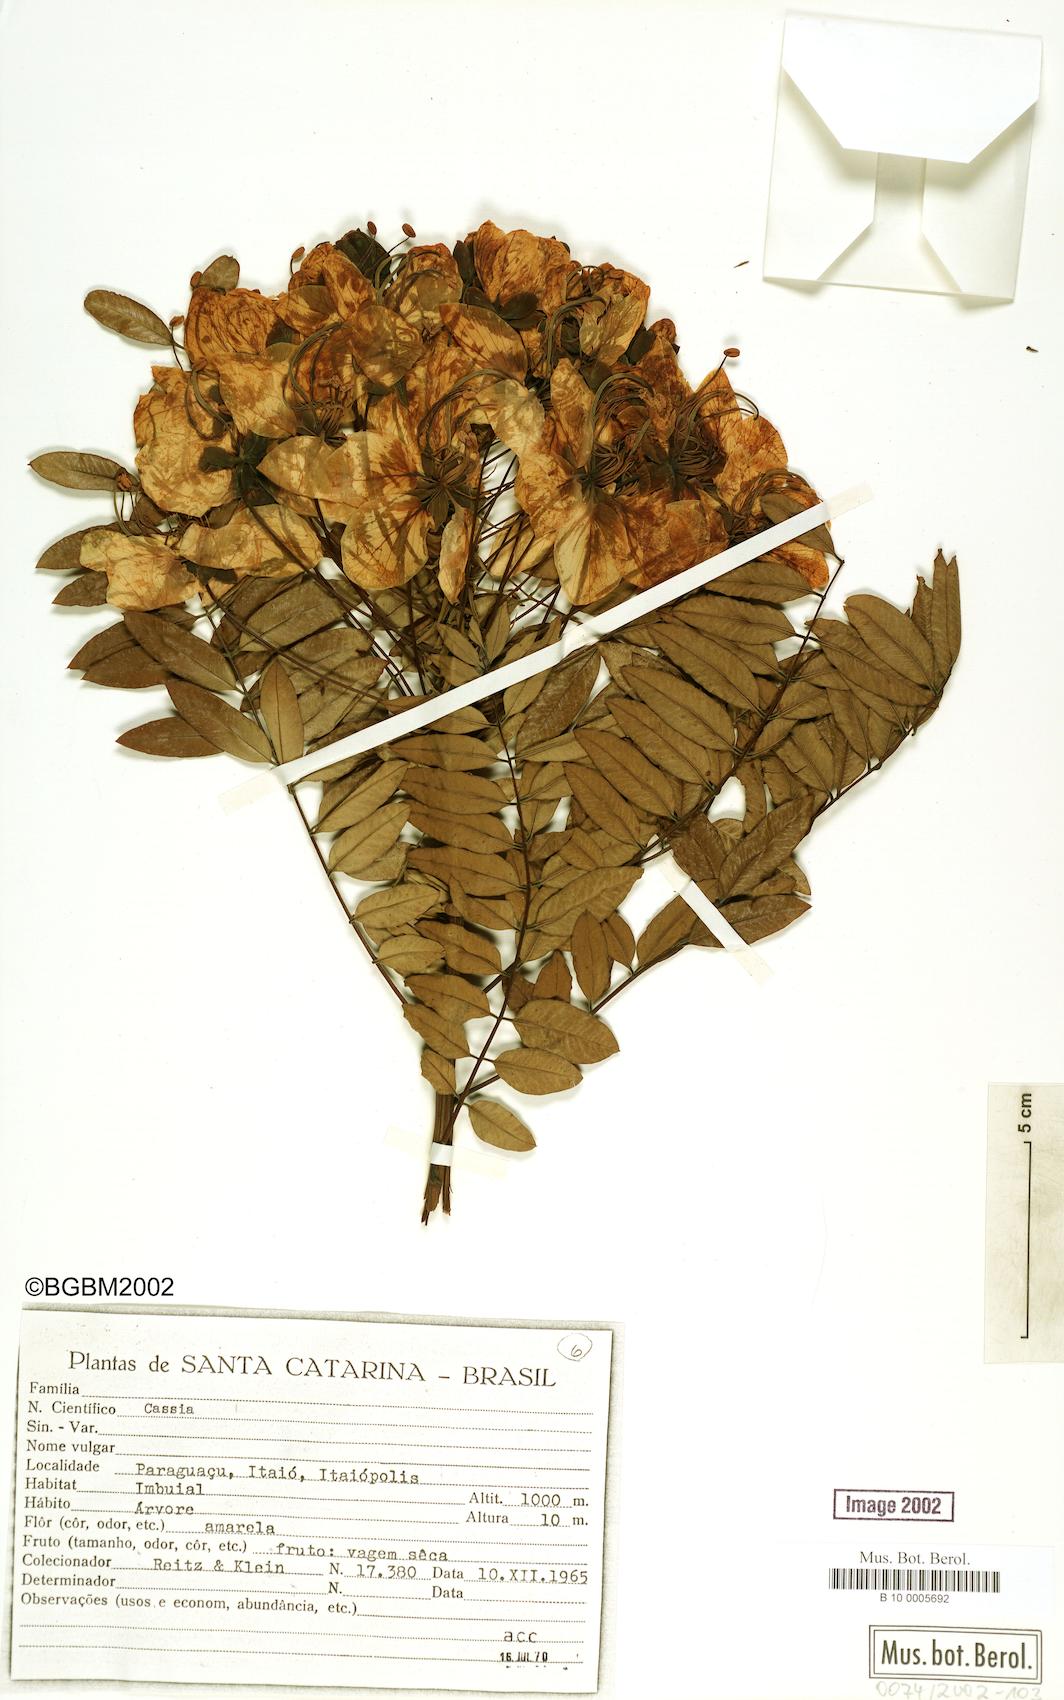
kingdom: Plantae
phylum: Tracheophyta
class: Magnoliopsida
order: Fabales
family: Fabaceae
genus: Cassia
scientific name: Cassia
